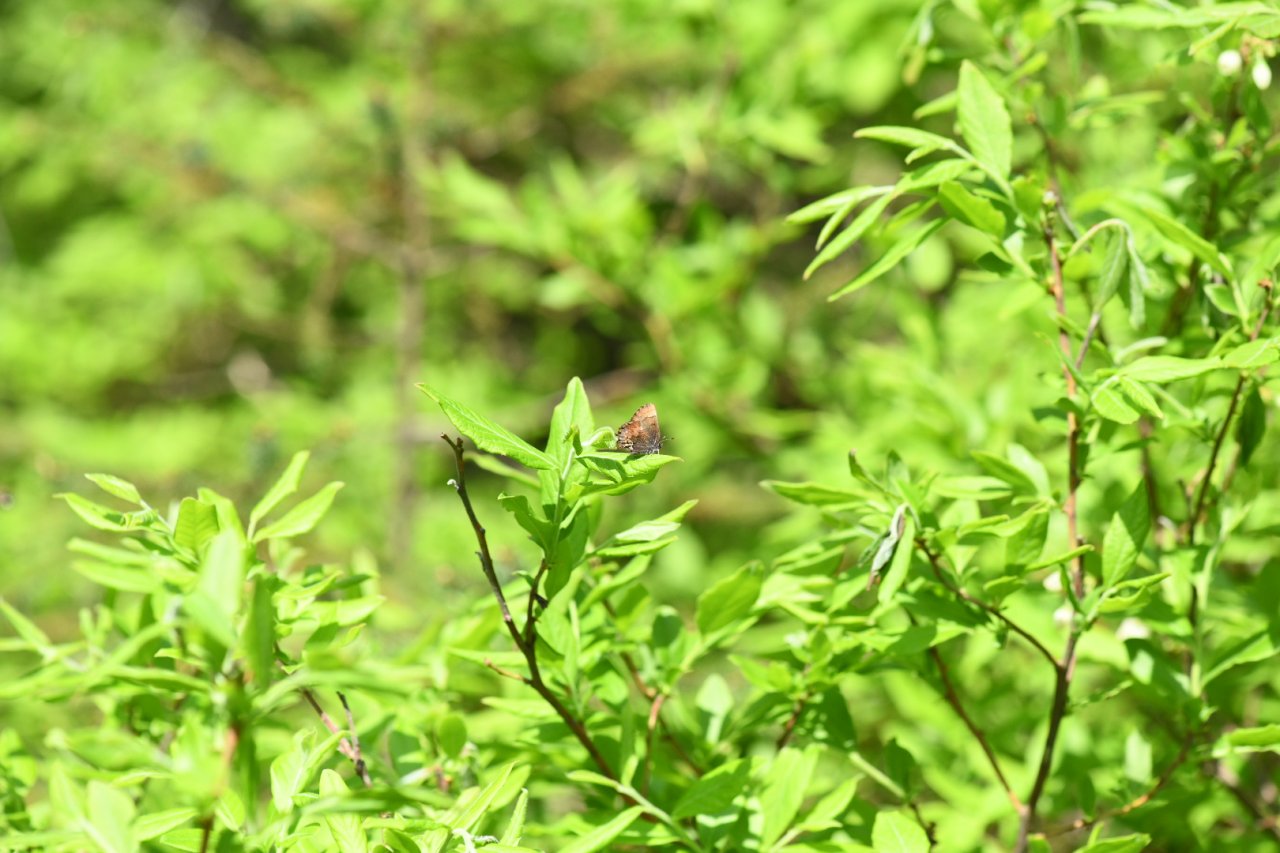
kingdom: Animalia
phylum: Arthropoda
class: Insecta
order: Lepidoptera
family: Lycaenidae
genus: Incisalia
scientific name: Incisalia henrici
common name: Henry's Elfin
